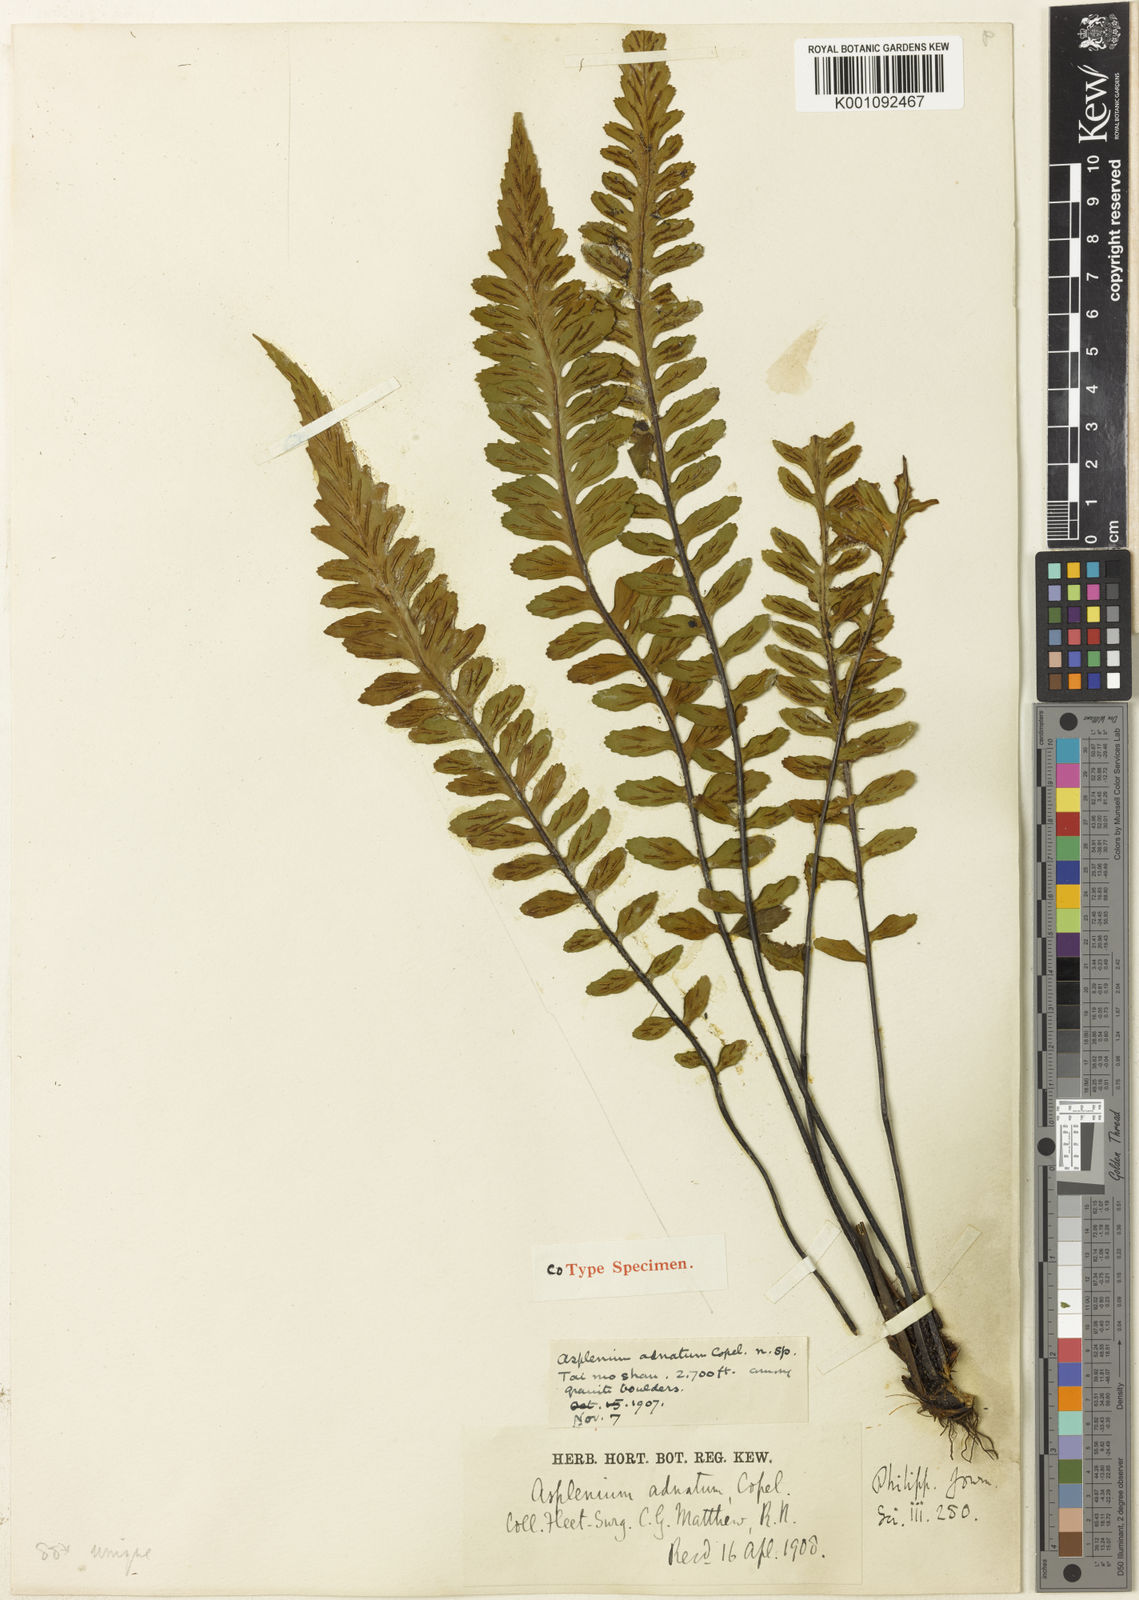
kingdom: Plantae
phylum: Tracheophyta
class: Polypodiopsida
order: Polypodiales
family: Aspleniaceae
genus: Asplenium
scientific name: Asplenium adnatum
